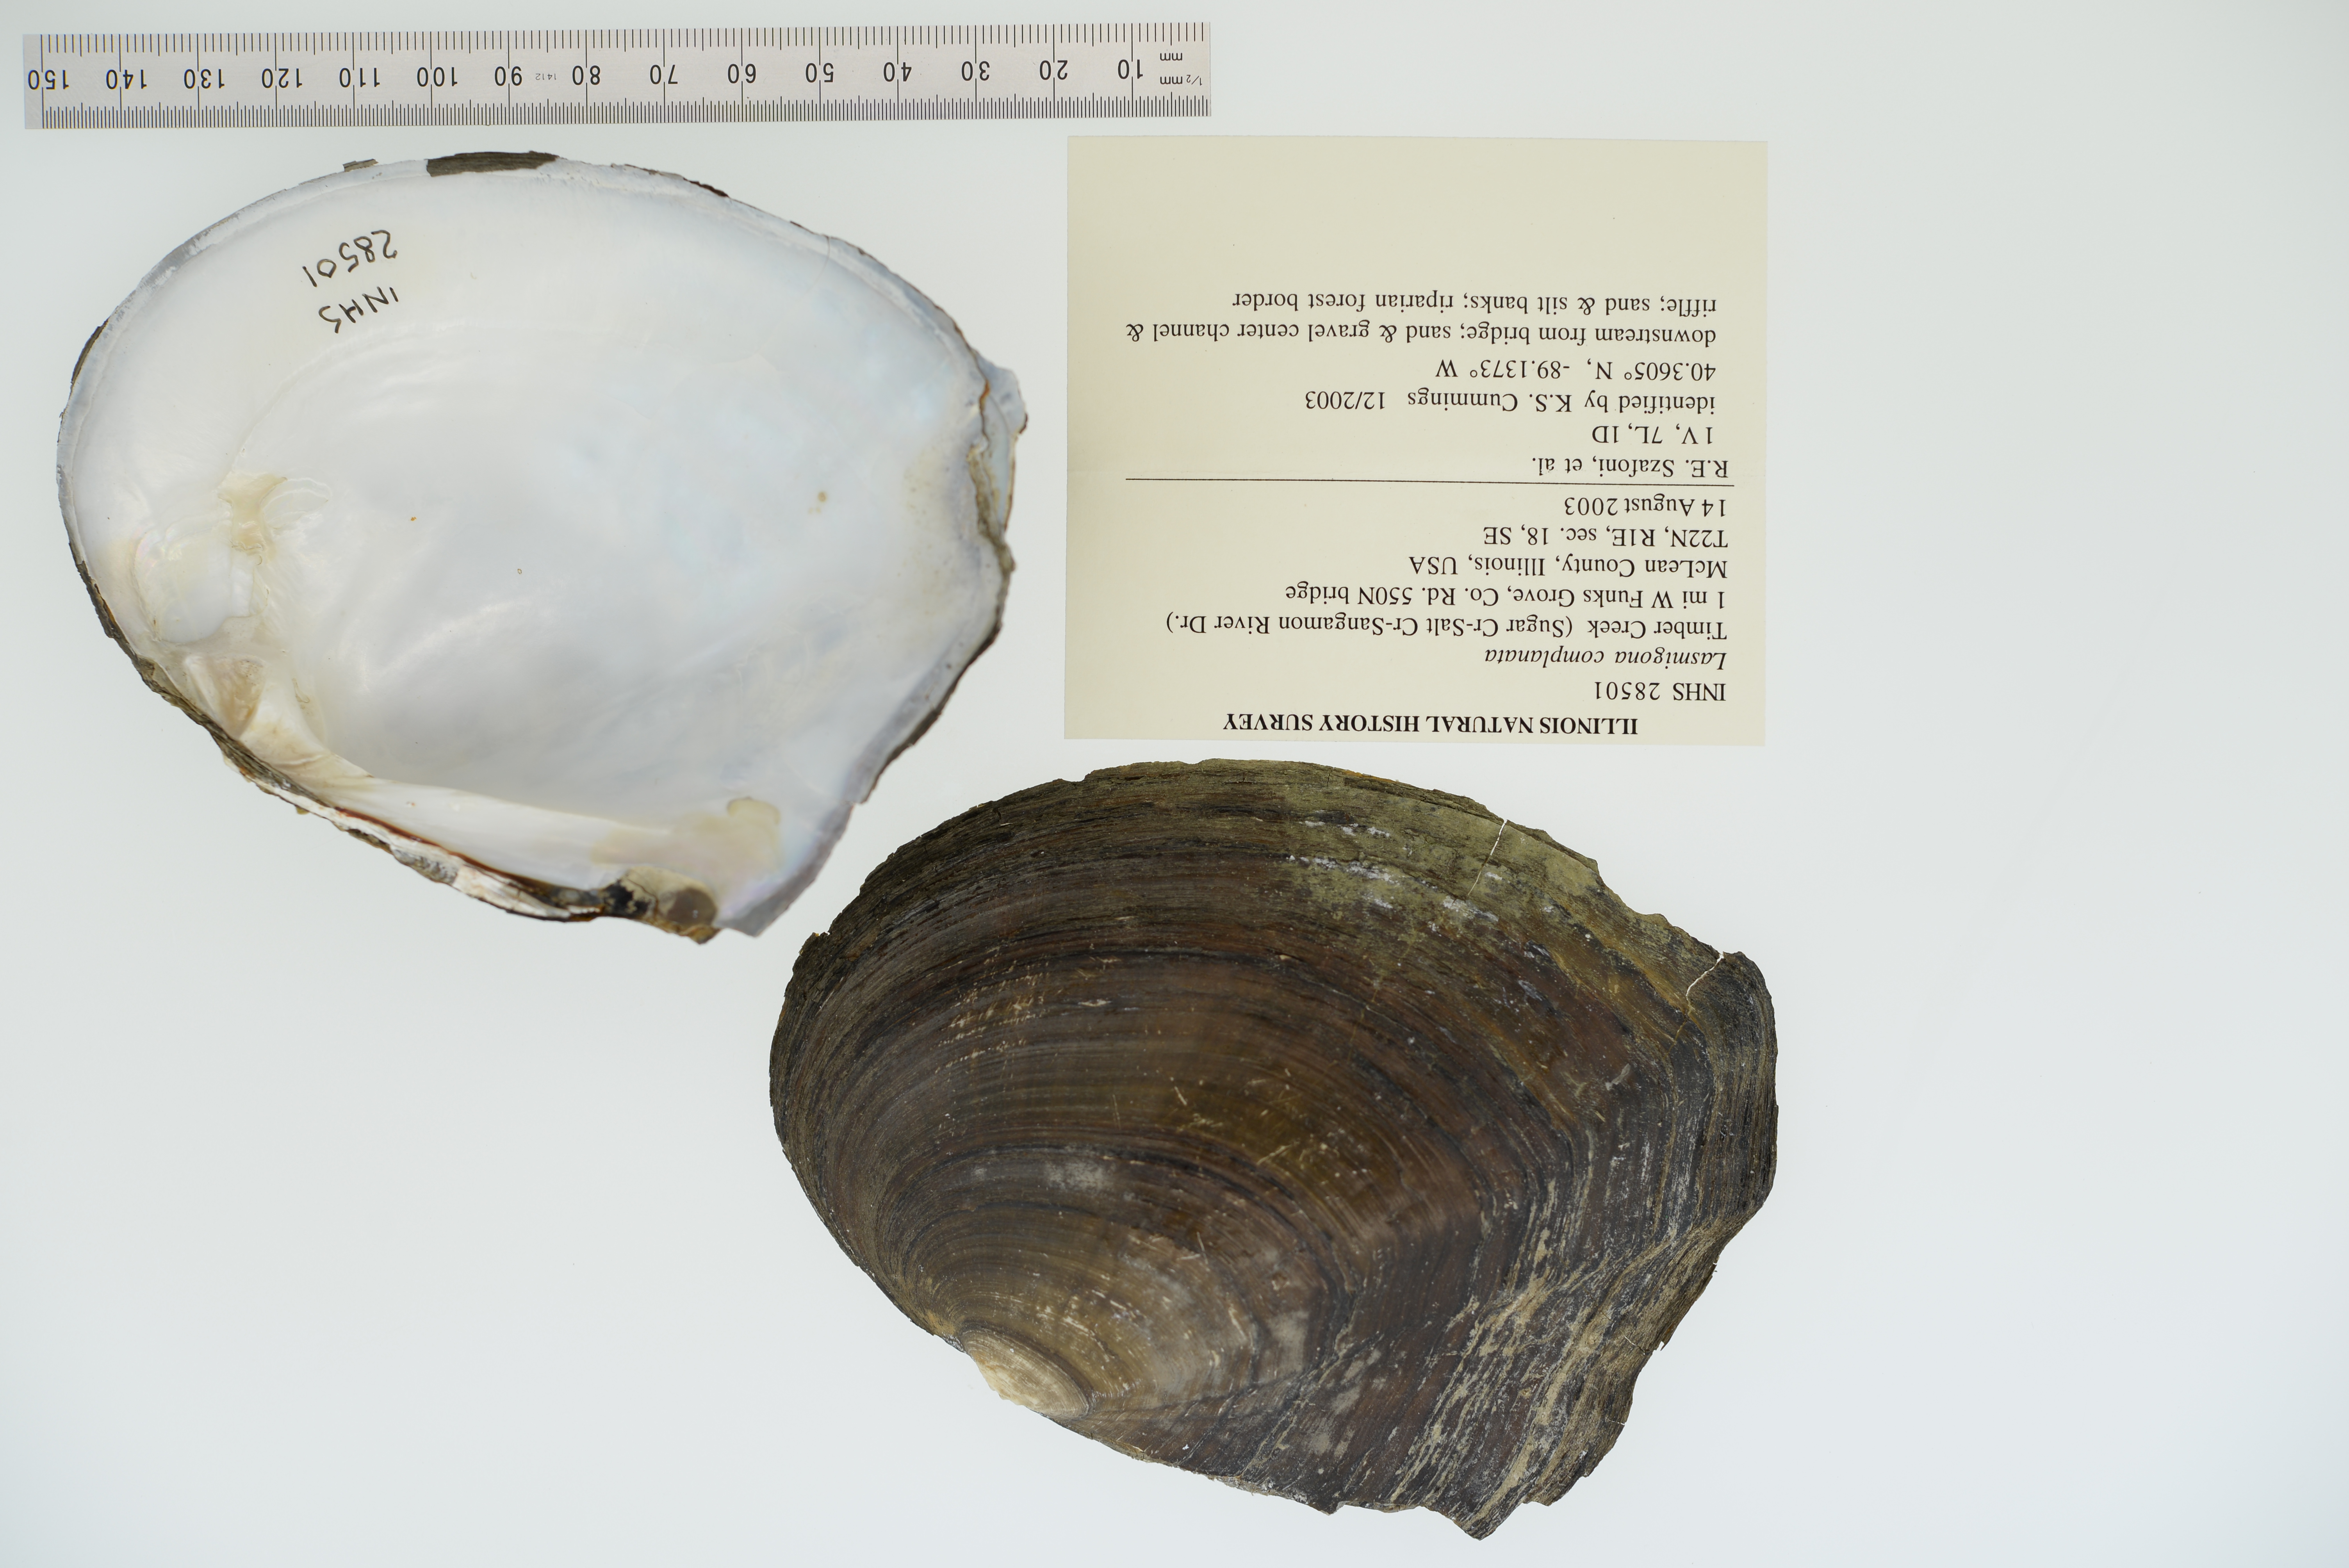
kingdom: Animalia
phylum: Mollusca
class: Bivalvia
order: Unionida
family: Unionidae
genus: Lasmigona
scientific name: Lasmigona complanata
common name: White heelsplitter
